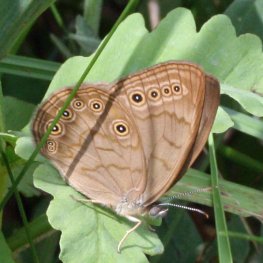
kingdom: Animalia
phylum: Arthropoda
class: Insecta
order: Lepidoptera
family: Nymphalidae
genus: Lethe
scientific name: Lethe eurydice
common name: Eyed Brown
